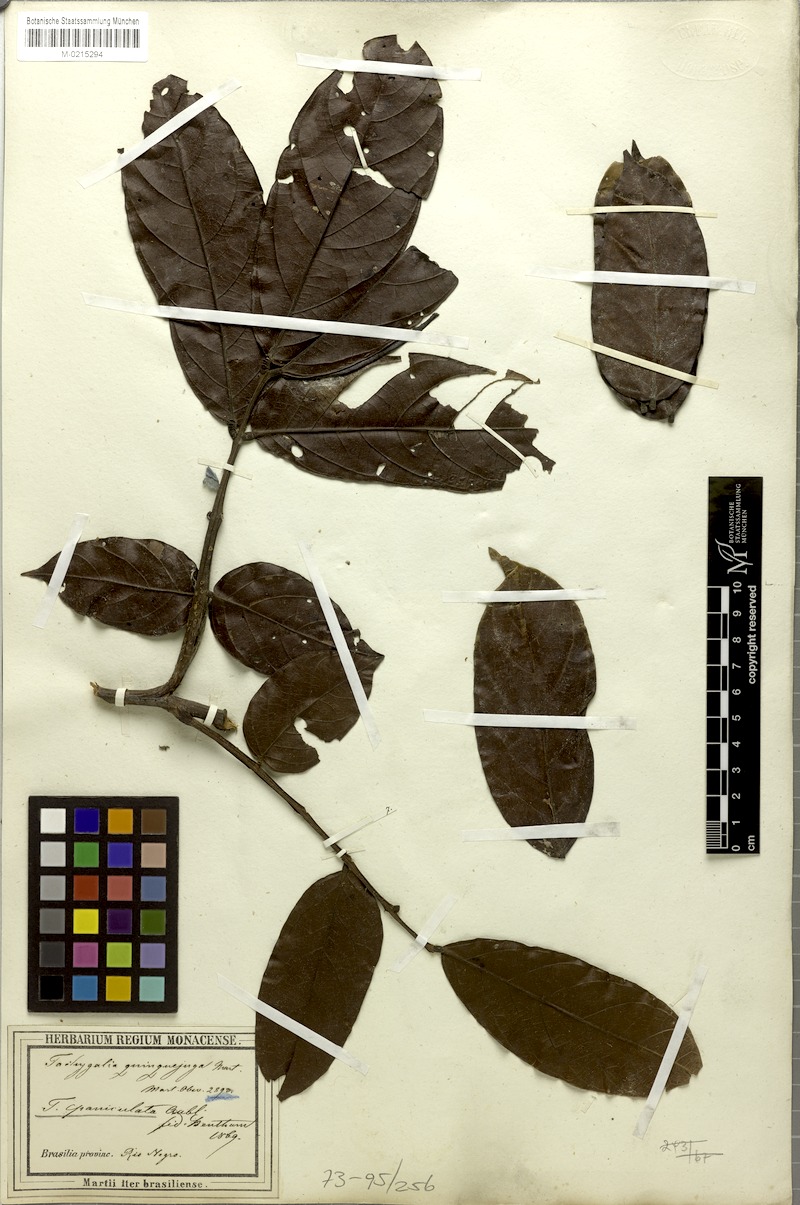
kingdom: Plantae
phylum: Tracheophyta
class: Magnoliopsida
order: Fabales
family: Fabaceae
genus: Tachigali
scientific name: Tachigali paniculata
